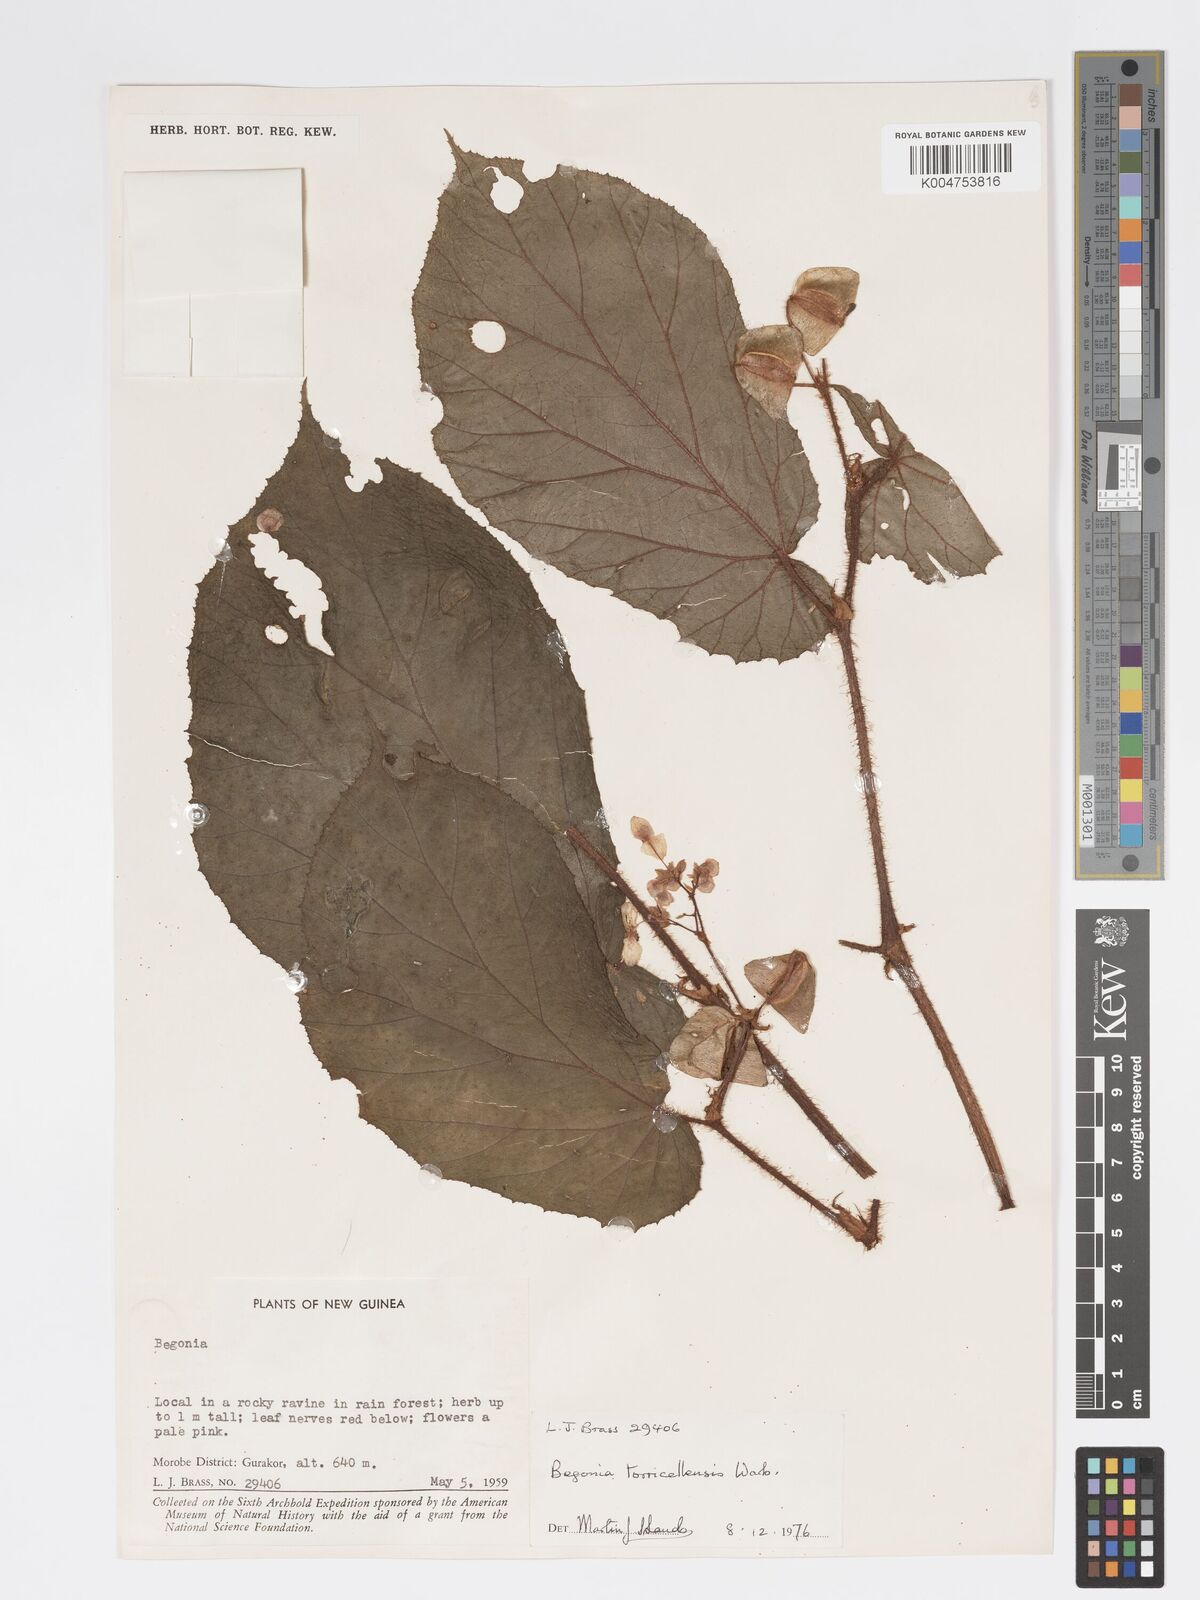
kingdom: Plantae
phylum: Tracheophyta
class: Magnoliopsida
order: Cucurbitales
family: Begoniaceae
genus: Begonia
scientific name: Begonia torricellensis
